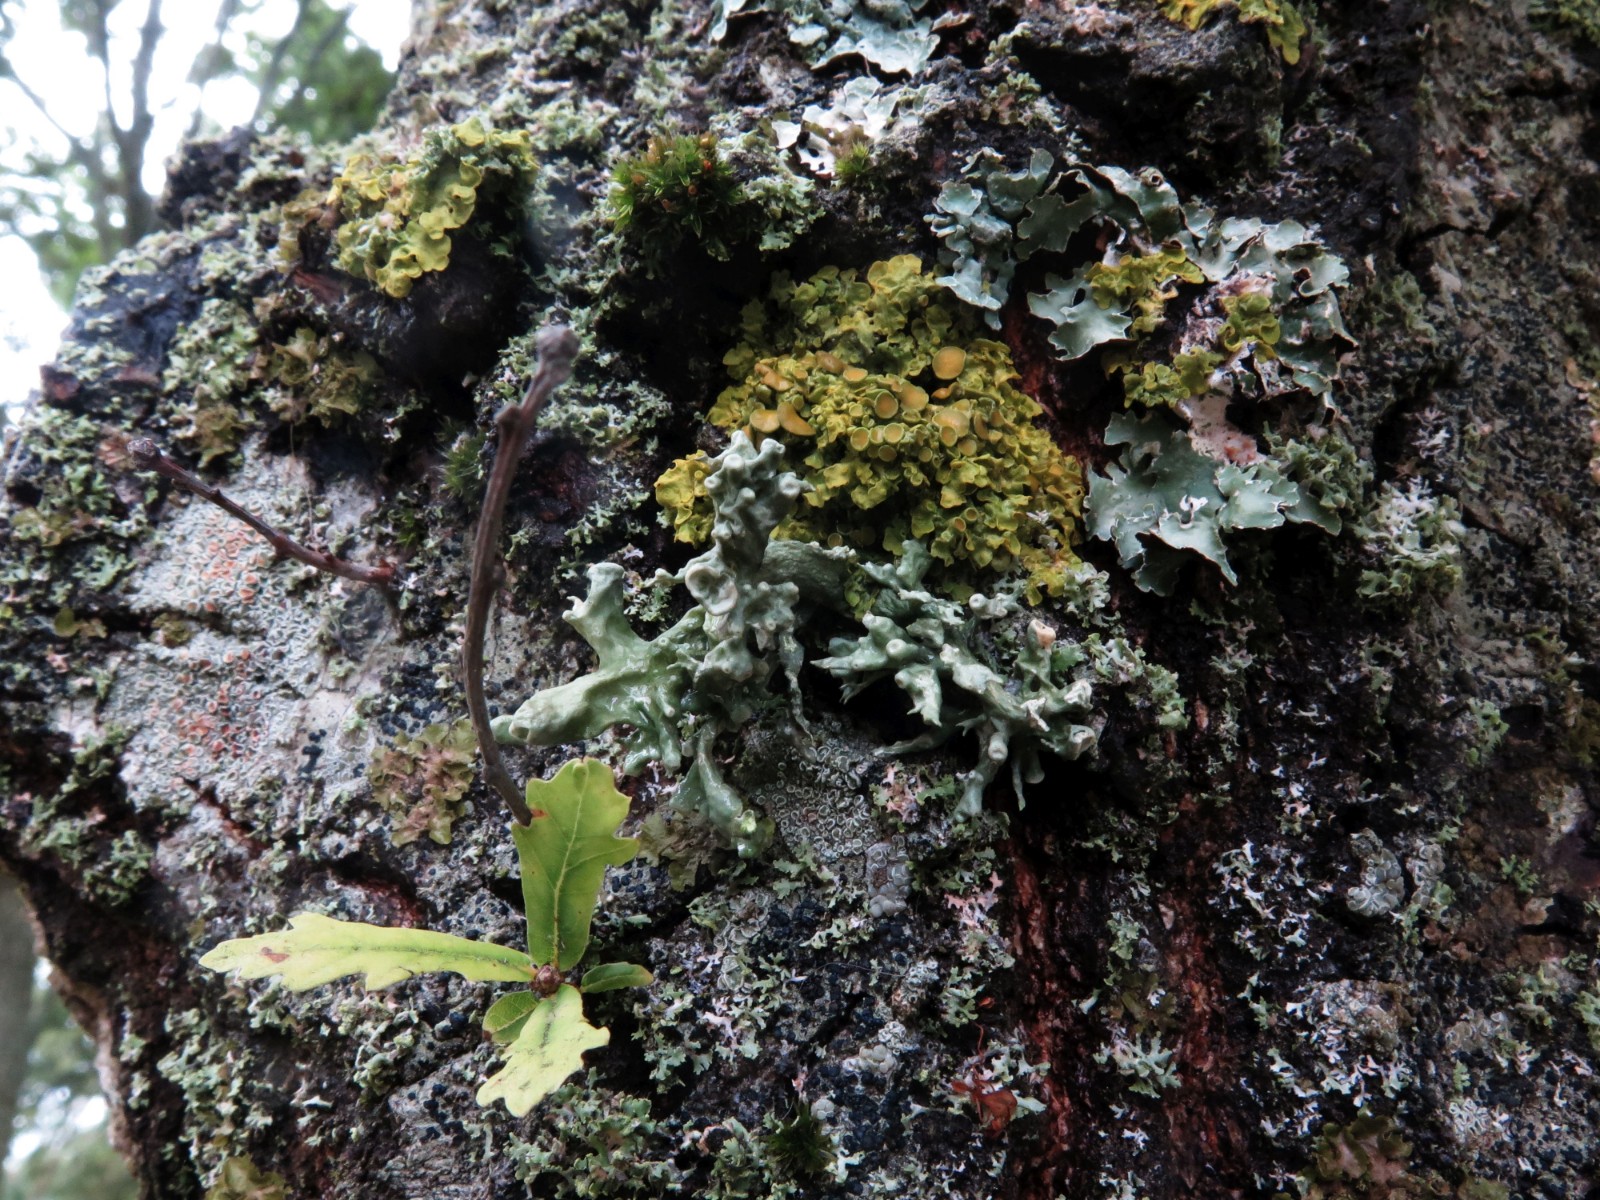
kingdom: Fungi
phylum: Ascomycota
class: Lecanoromycetes
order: Lecanorales
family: Ramalinaceae
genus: Ramalina
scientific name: Ramalina fastigiata
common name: tue-grenlav
